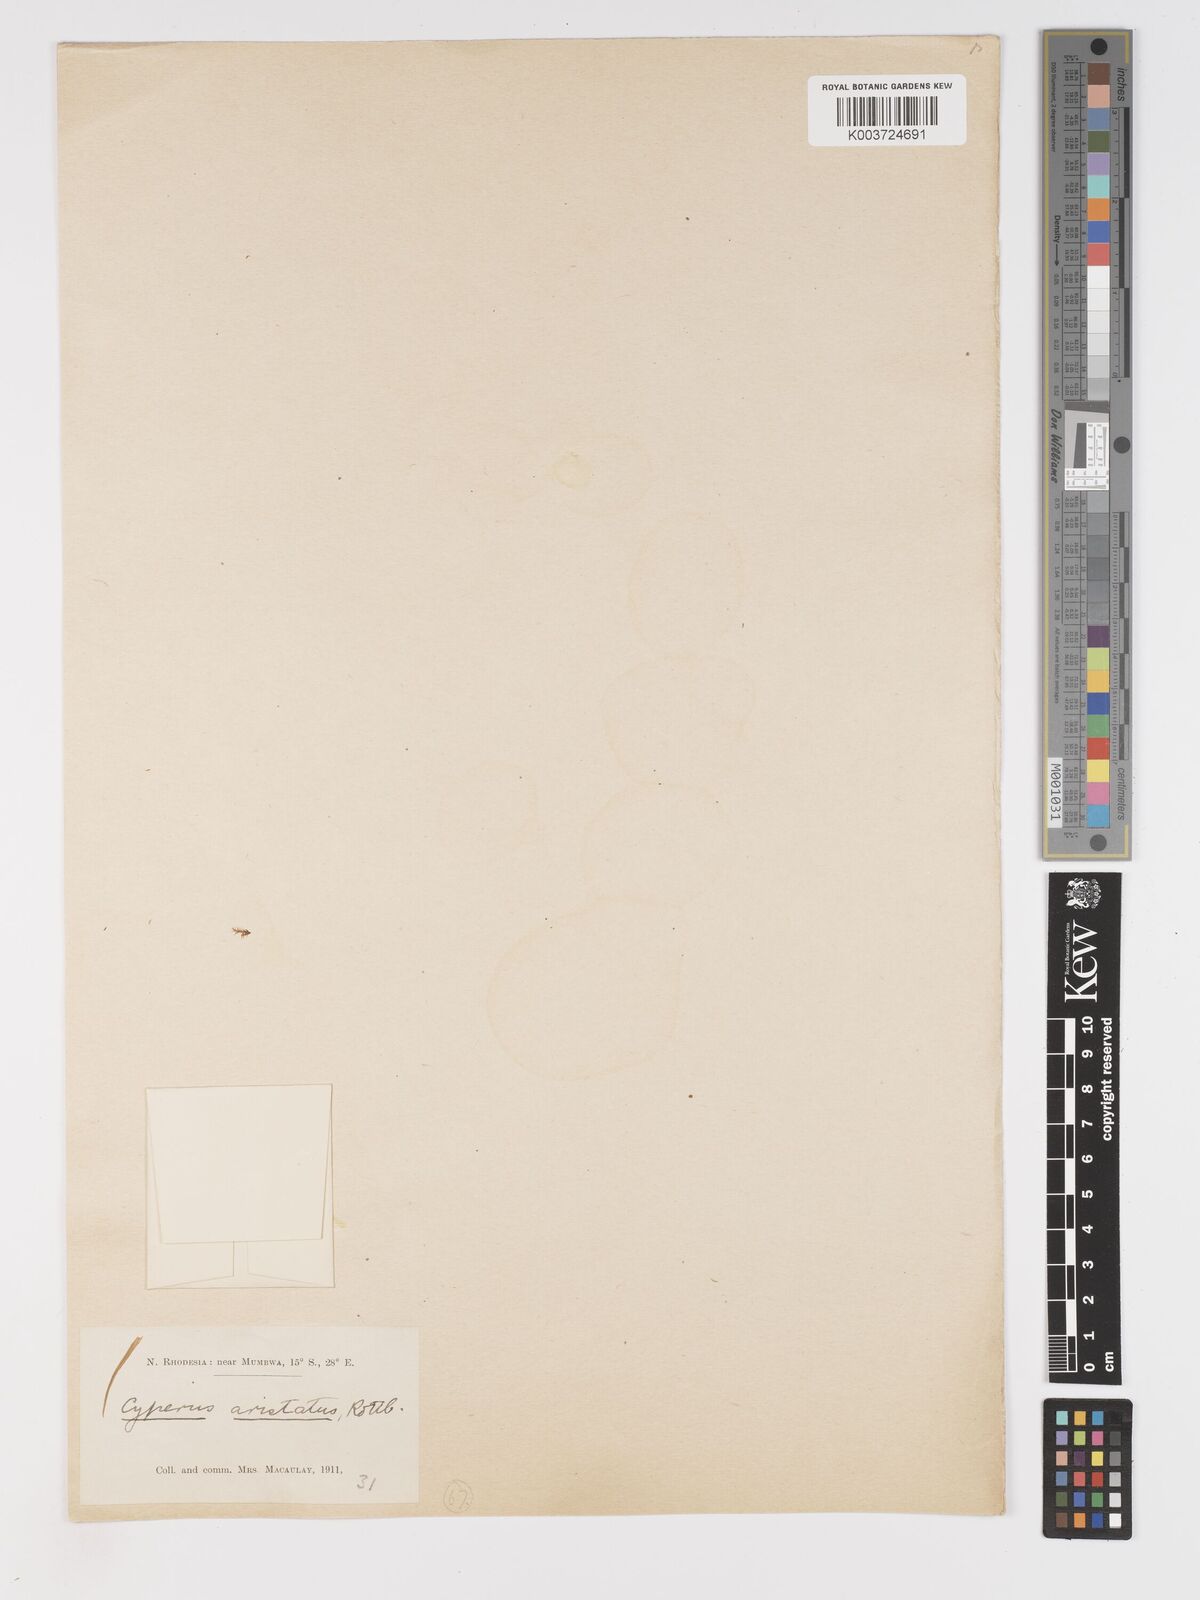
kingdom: Plantae
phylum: Tracheophyta
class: Liliopsida
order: Poales
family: Cyperaceae
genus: Cyperus
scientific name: Cyperus squarrosus
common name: Awned cyperus
